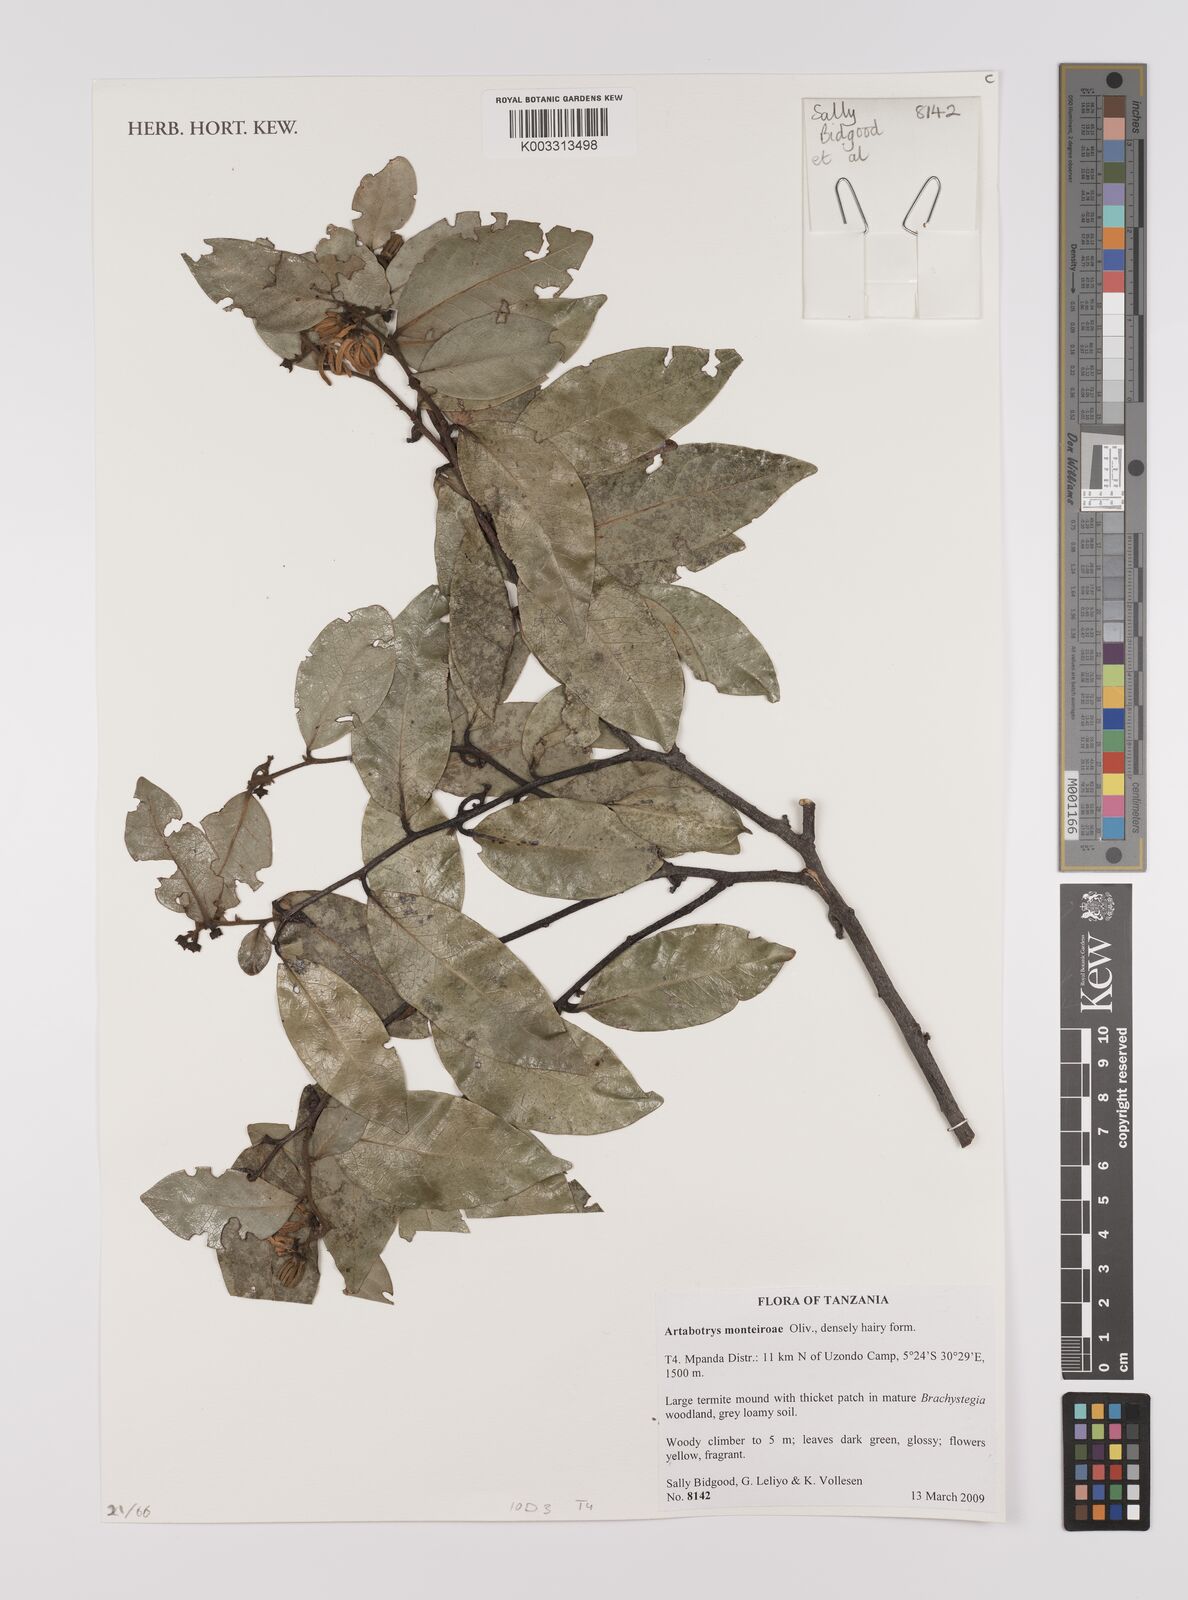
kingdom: Plantae
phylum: Tracheophyta
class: Magnoliopsida
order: Magnoliales
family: Annonaceae
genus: Artabotrys
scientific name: Artabotrys monteiroae
